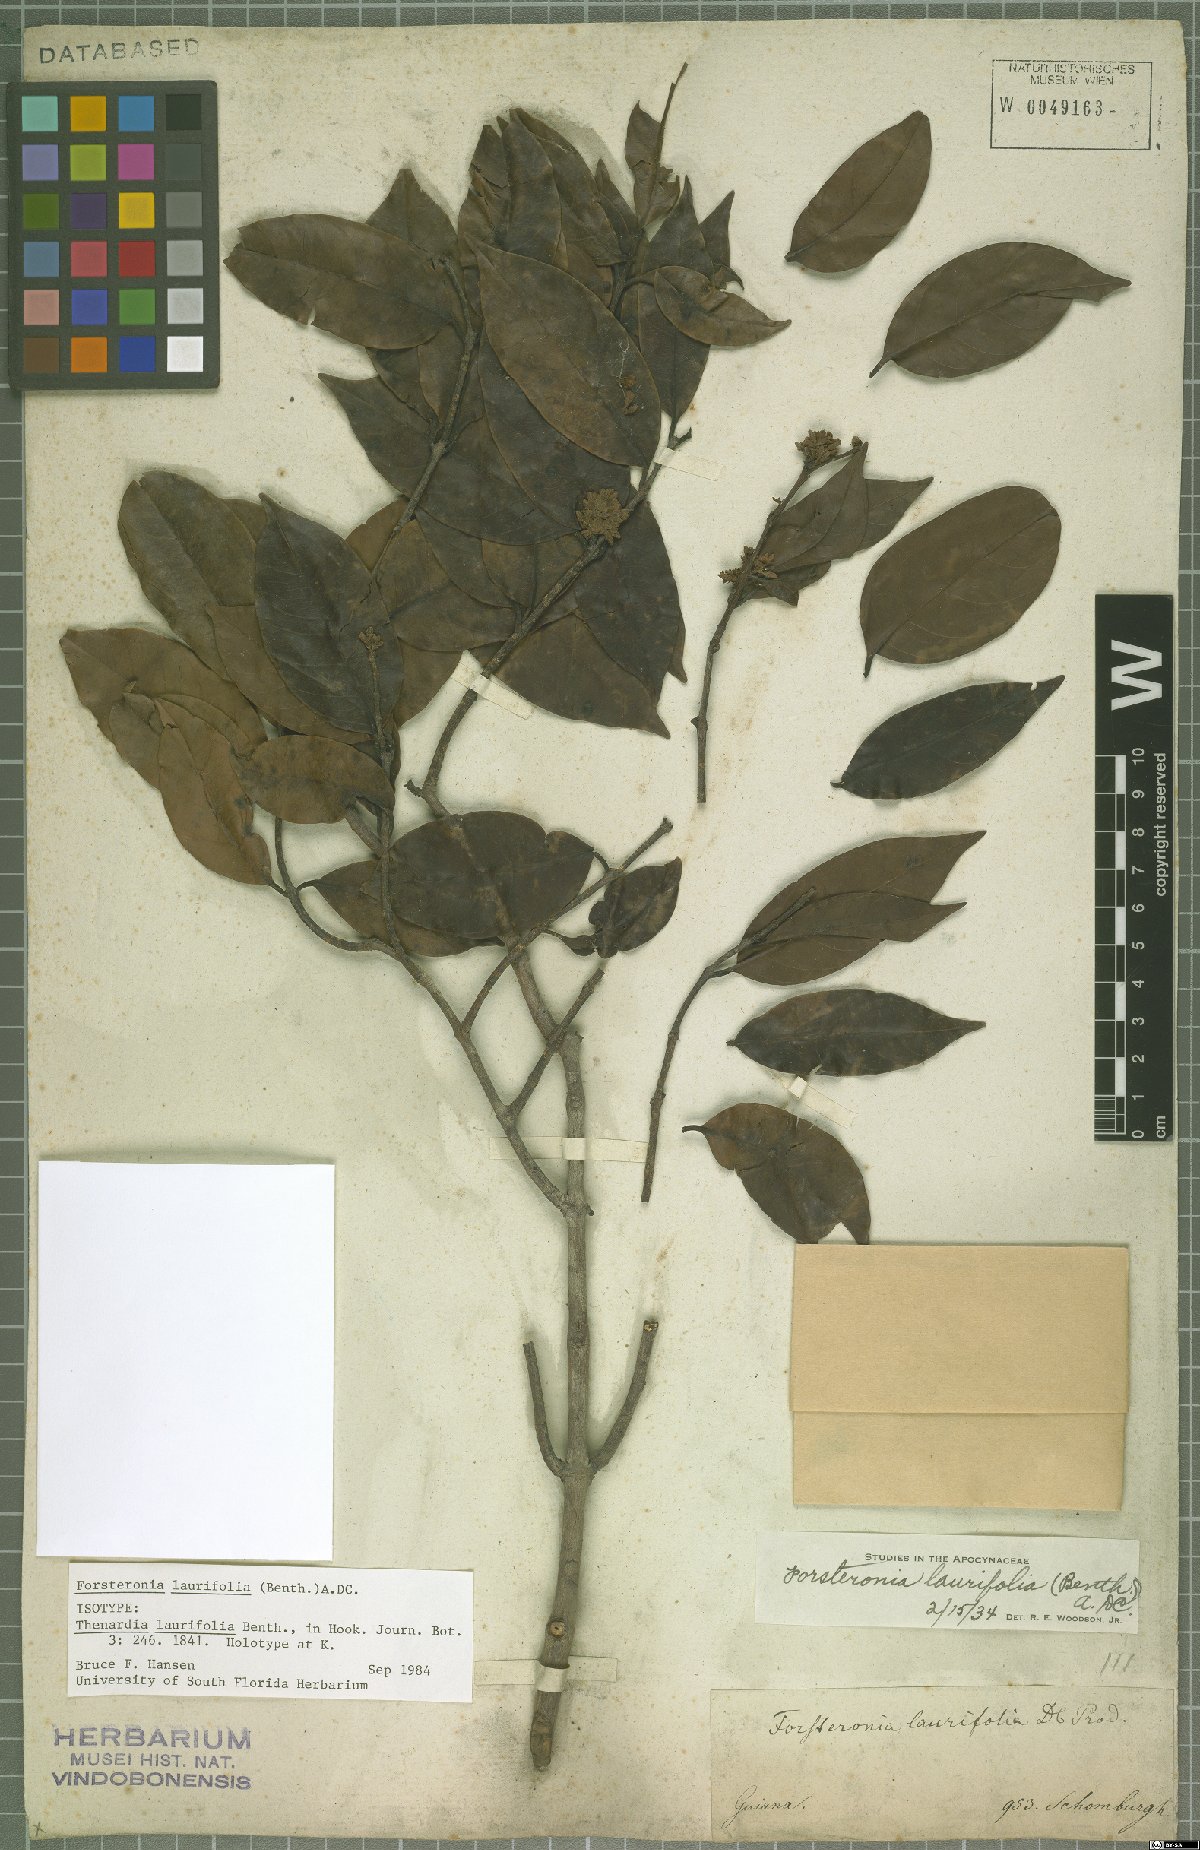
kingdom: Plantae
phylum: Tracheophyta
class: Magnoliopsida
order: Gentianales
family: Apocynaceae
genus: Forsteronia
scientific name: Forsteronia laurifolia
